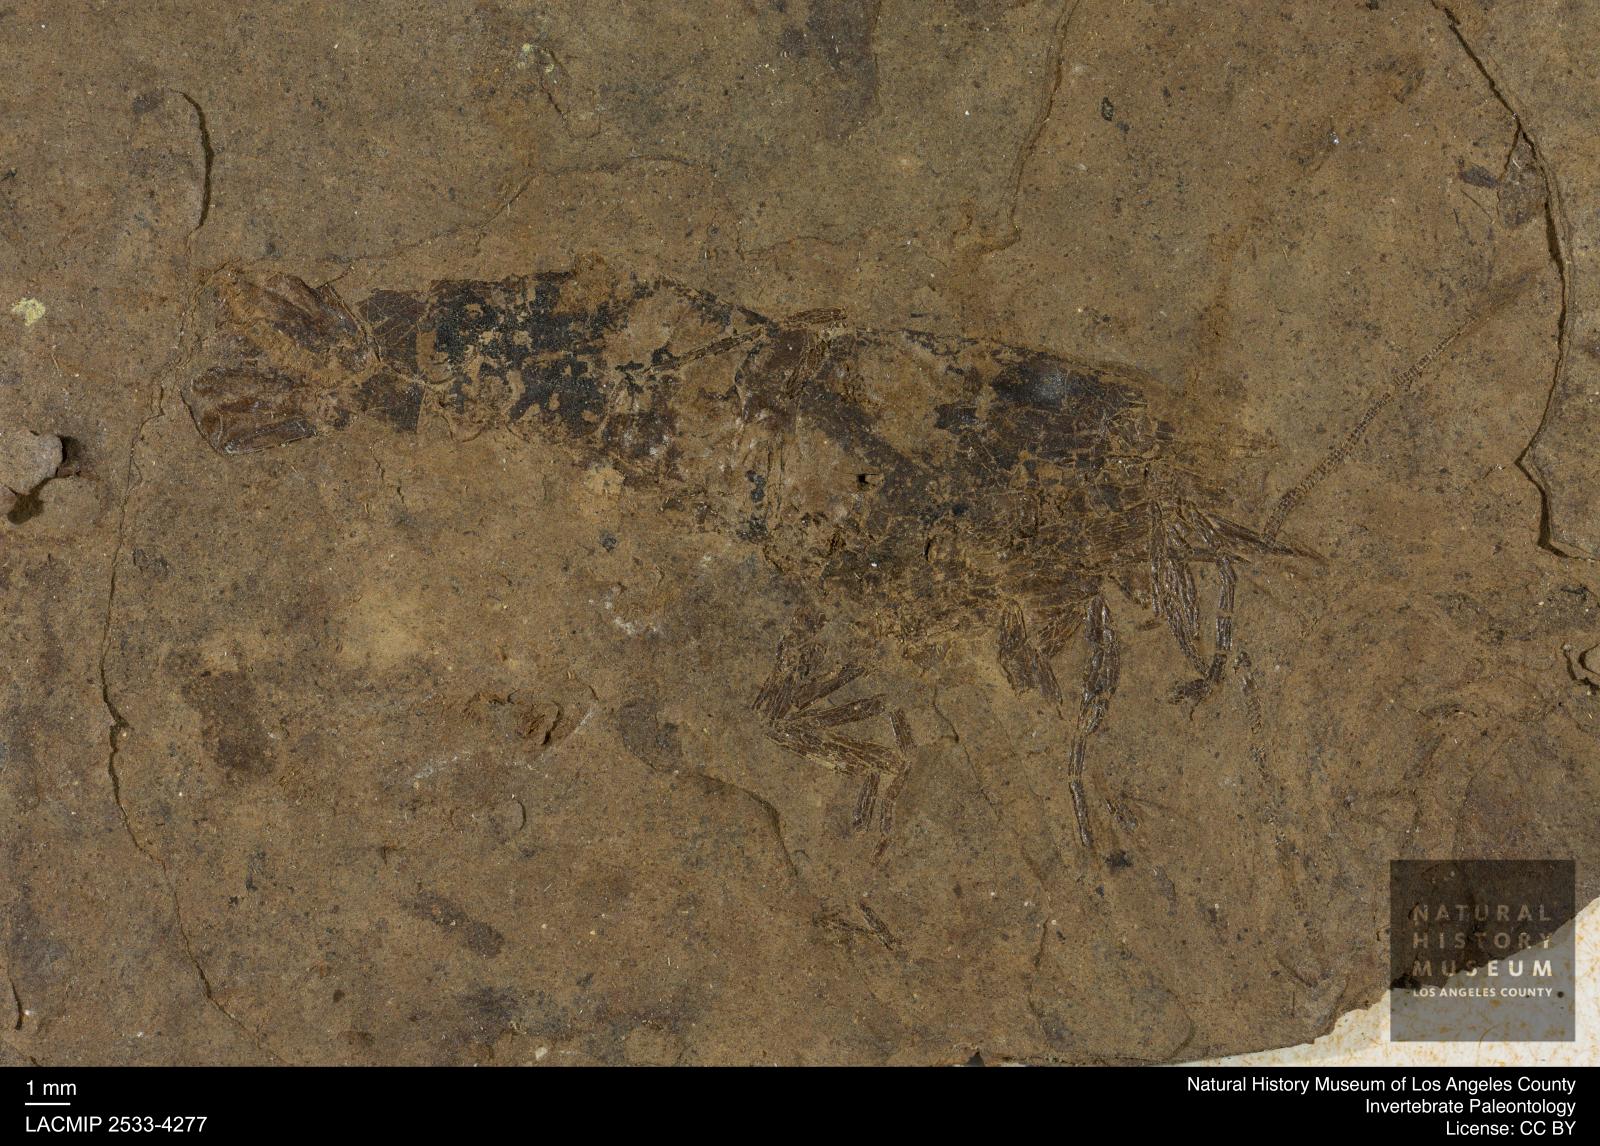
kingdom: Animalia
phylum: Arthropoda
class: Malacostraca
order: Decapoda
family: Palaemonidae
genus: Micropsalis
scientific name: Micropsalis papyracea
